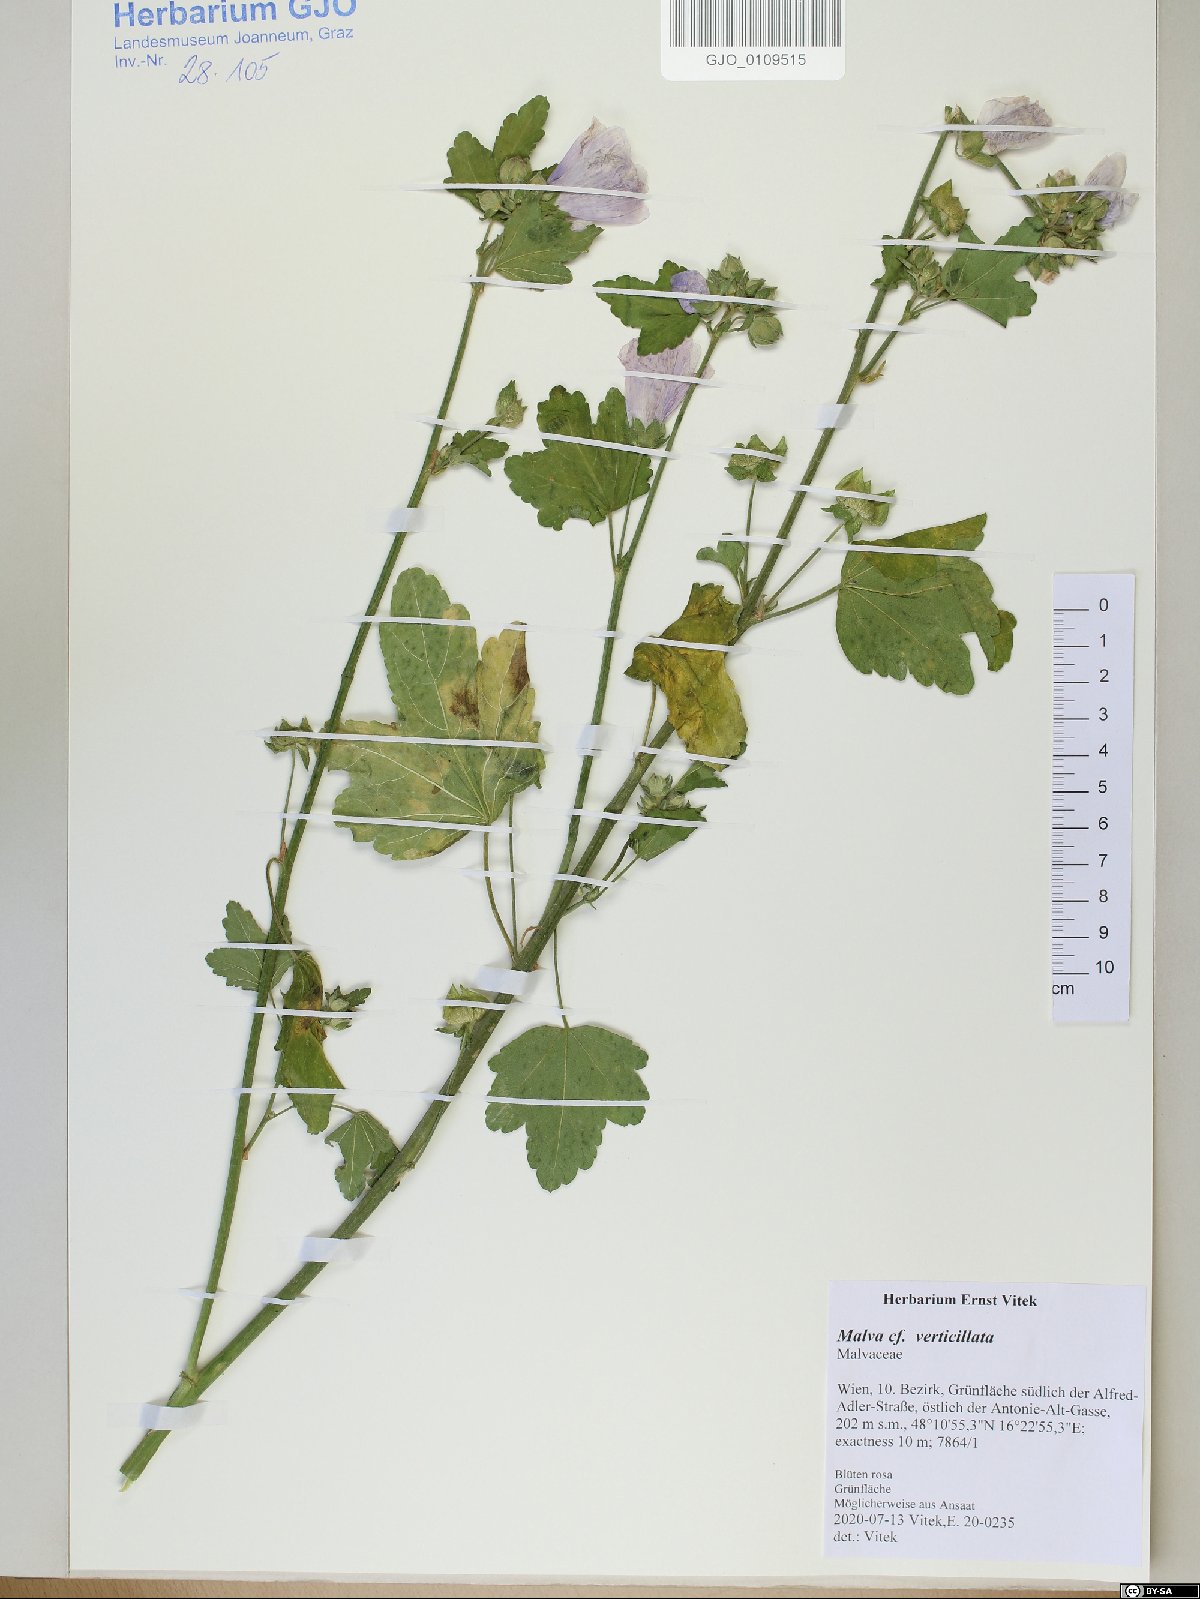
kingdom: Plantae
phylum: Tracheophyta
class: Magnoliopsida
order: Malvales
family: Malvaceae
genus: Malva
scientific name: Malva thuringiaca
